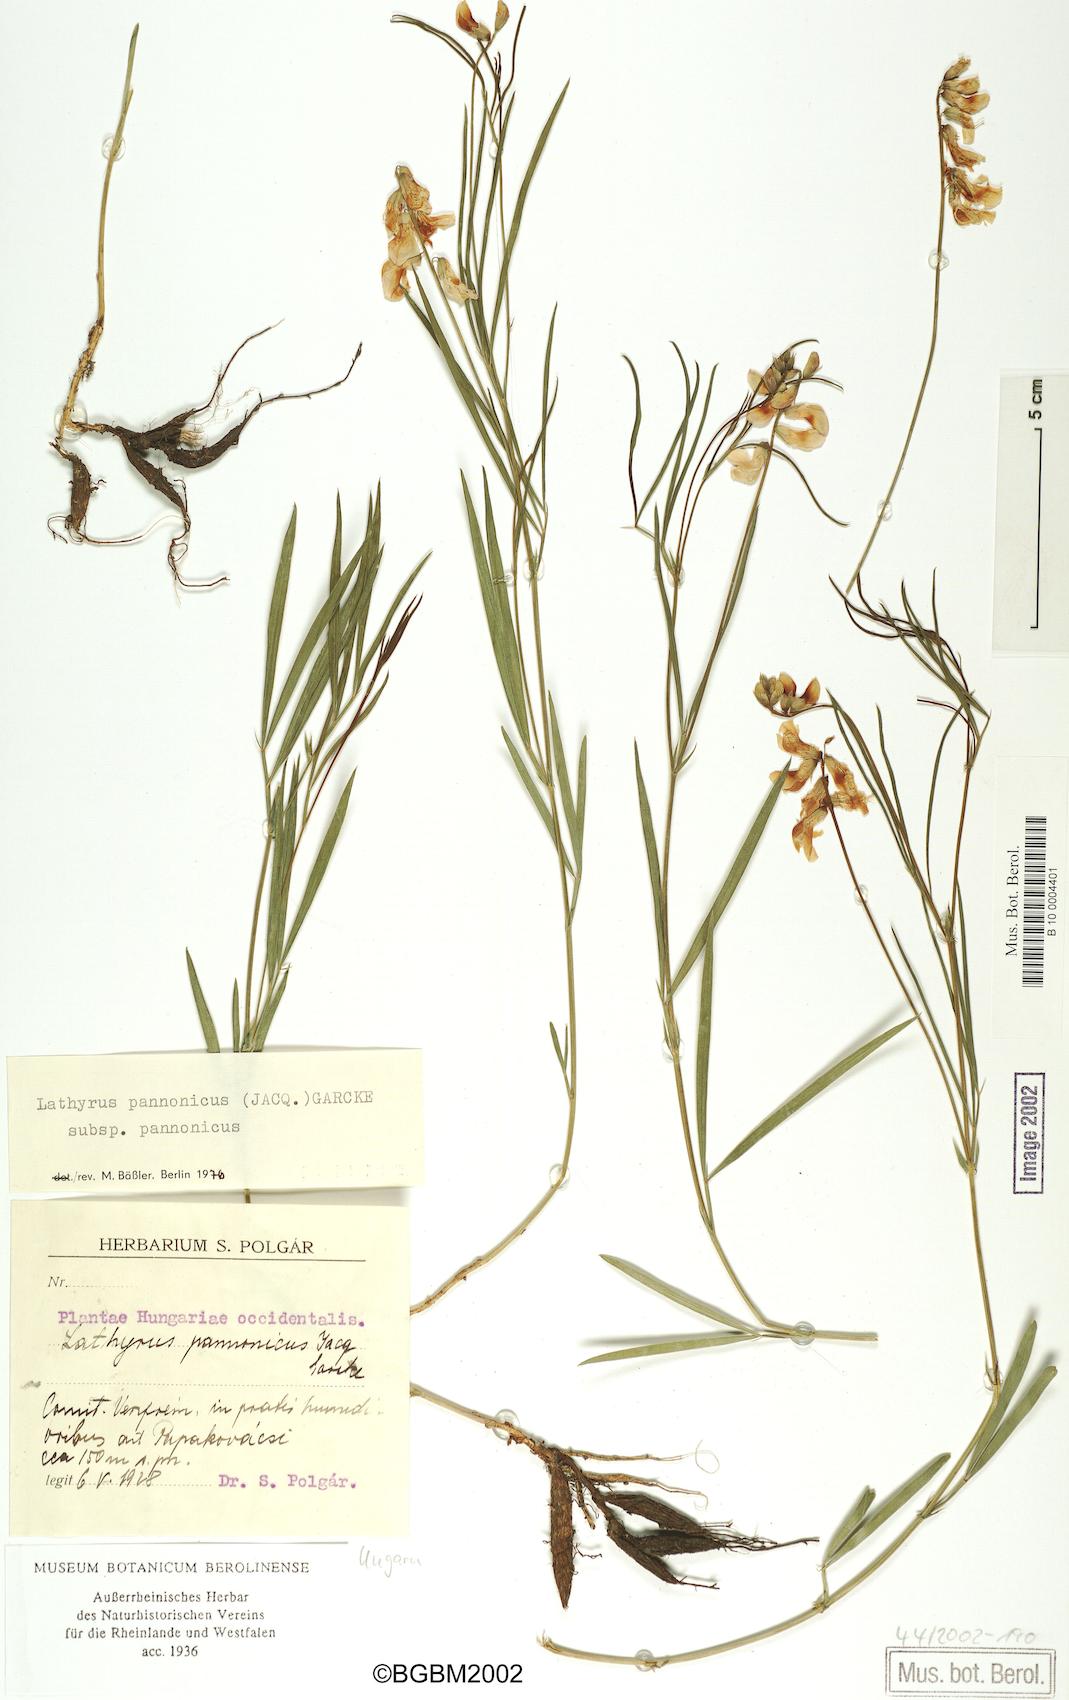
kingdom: Plantae
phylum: Tracheophyta
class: Magnoliopsida
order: Fabales
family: Fabaceae
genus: Lathyrus
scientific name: Lathyrus pannonicus
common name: Pea
